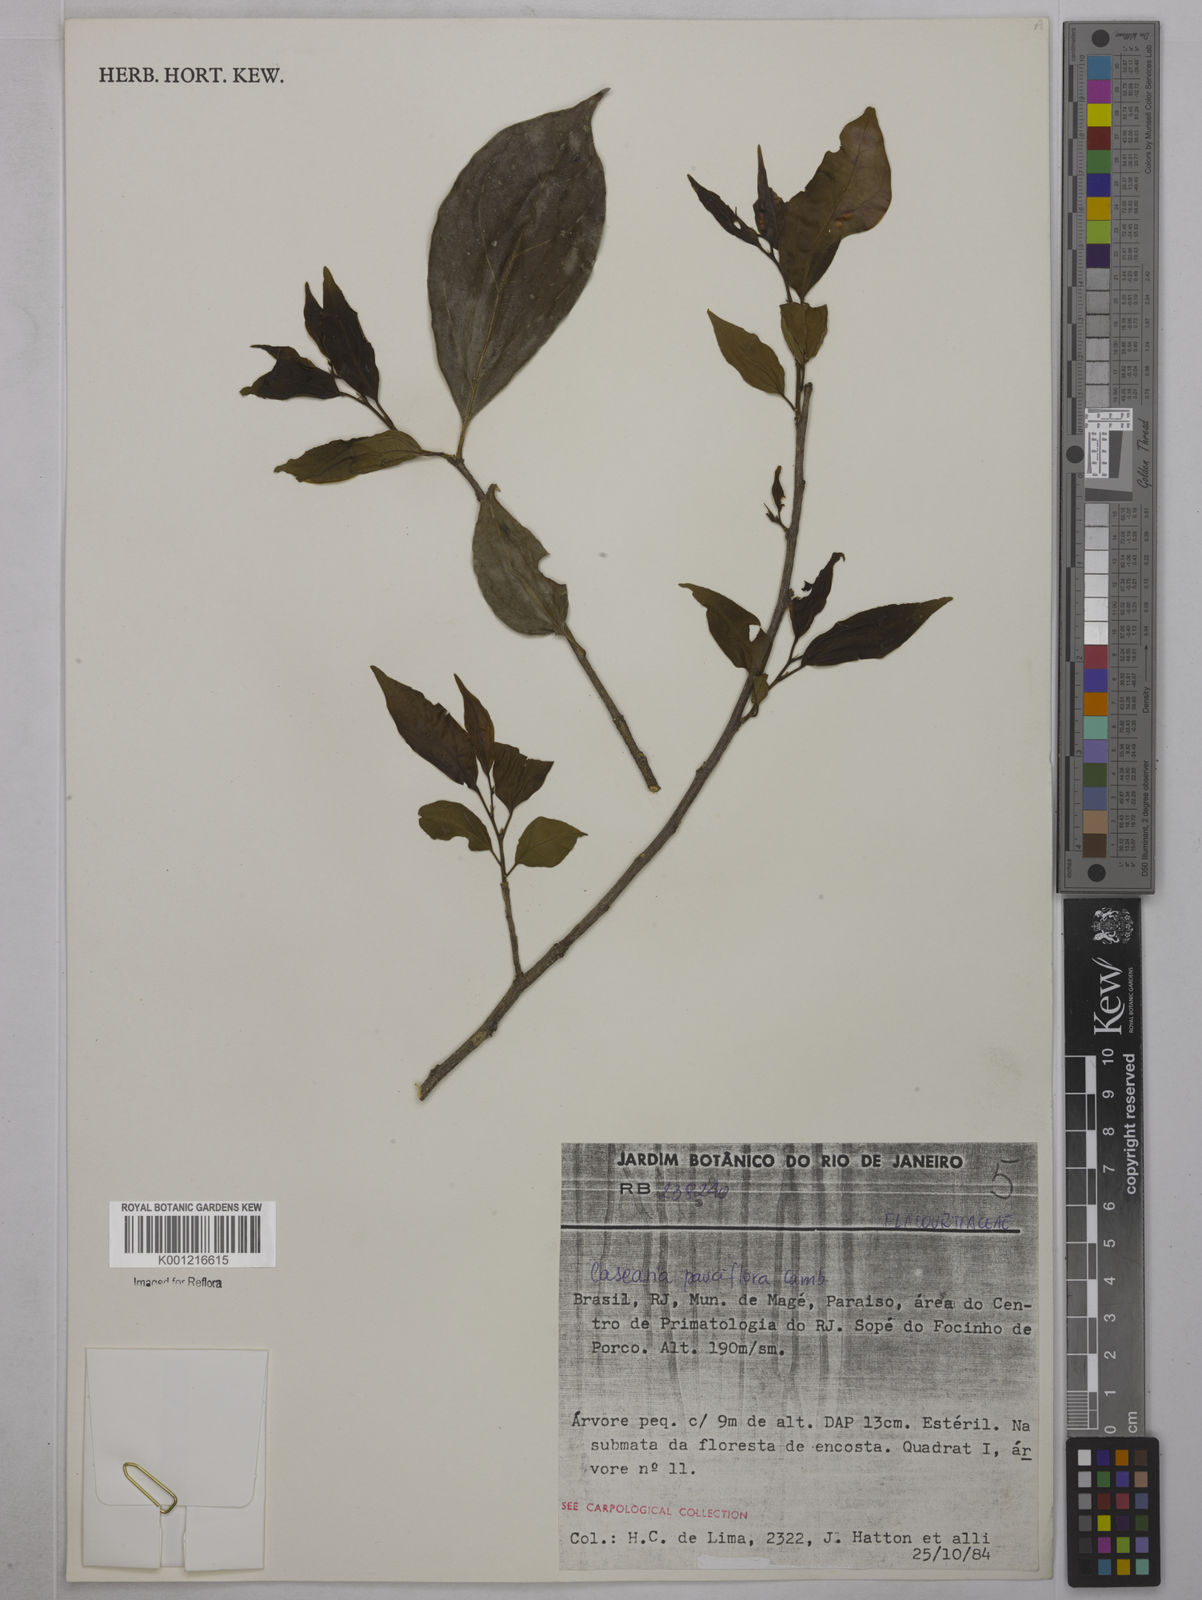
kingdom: Plantae
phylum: Tracheophyta
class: Magnoliopsida
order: Malpighiales
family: Salicaceae
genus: Casearia
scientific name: Casearia pauciflora
